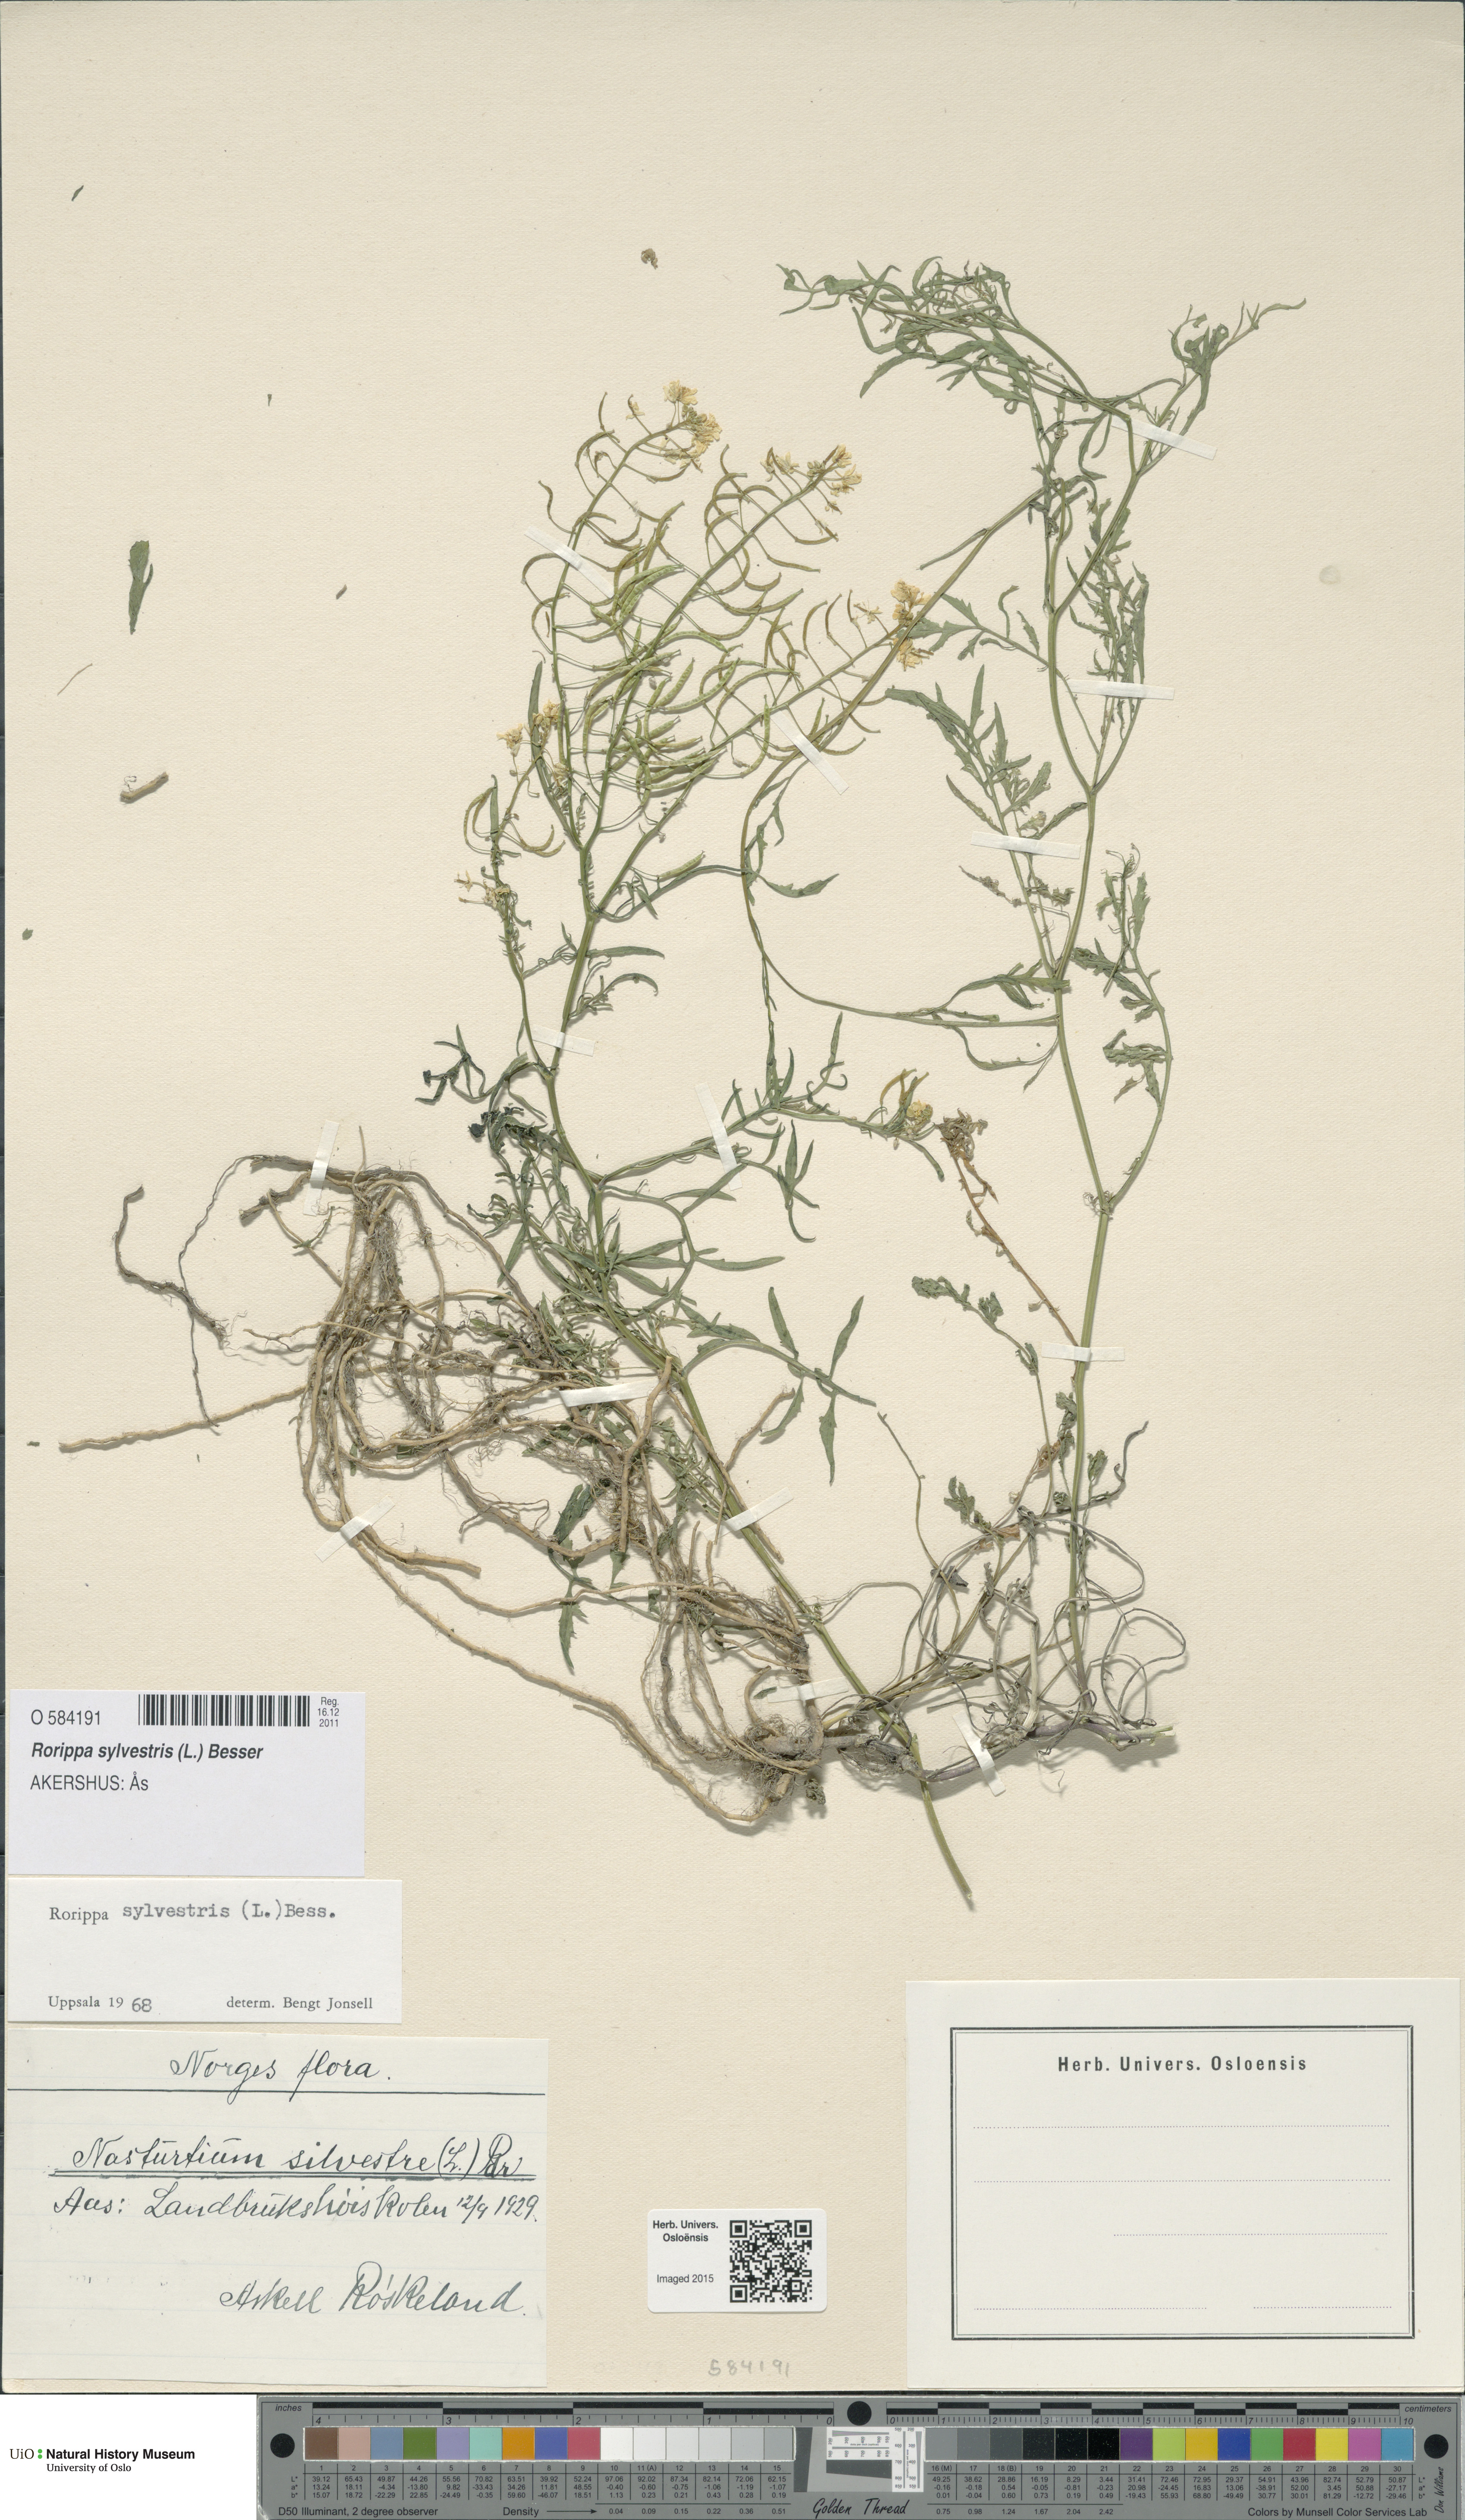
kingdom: Plantae
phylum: Tracheophyta
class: Magnoliopsida
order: Brassicales
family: Brassicaceae
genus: Rorippa
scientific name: Rorippa sylvestris
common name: Creeping yellowcress
